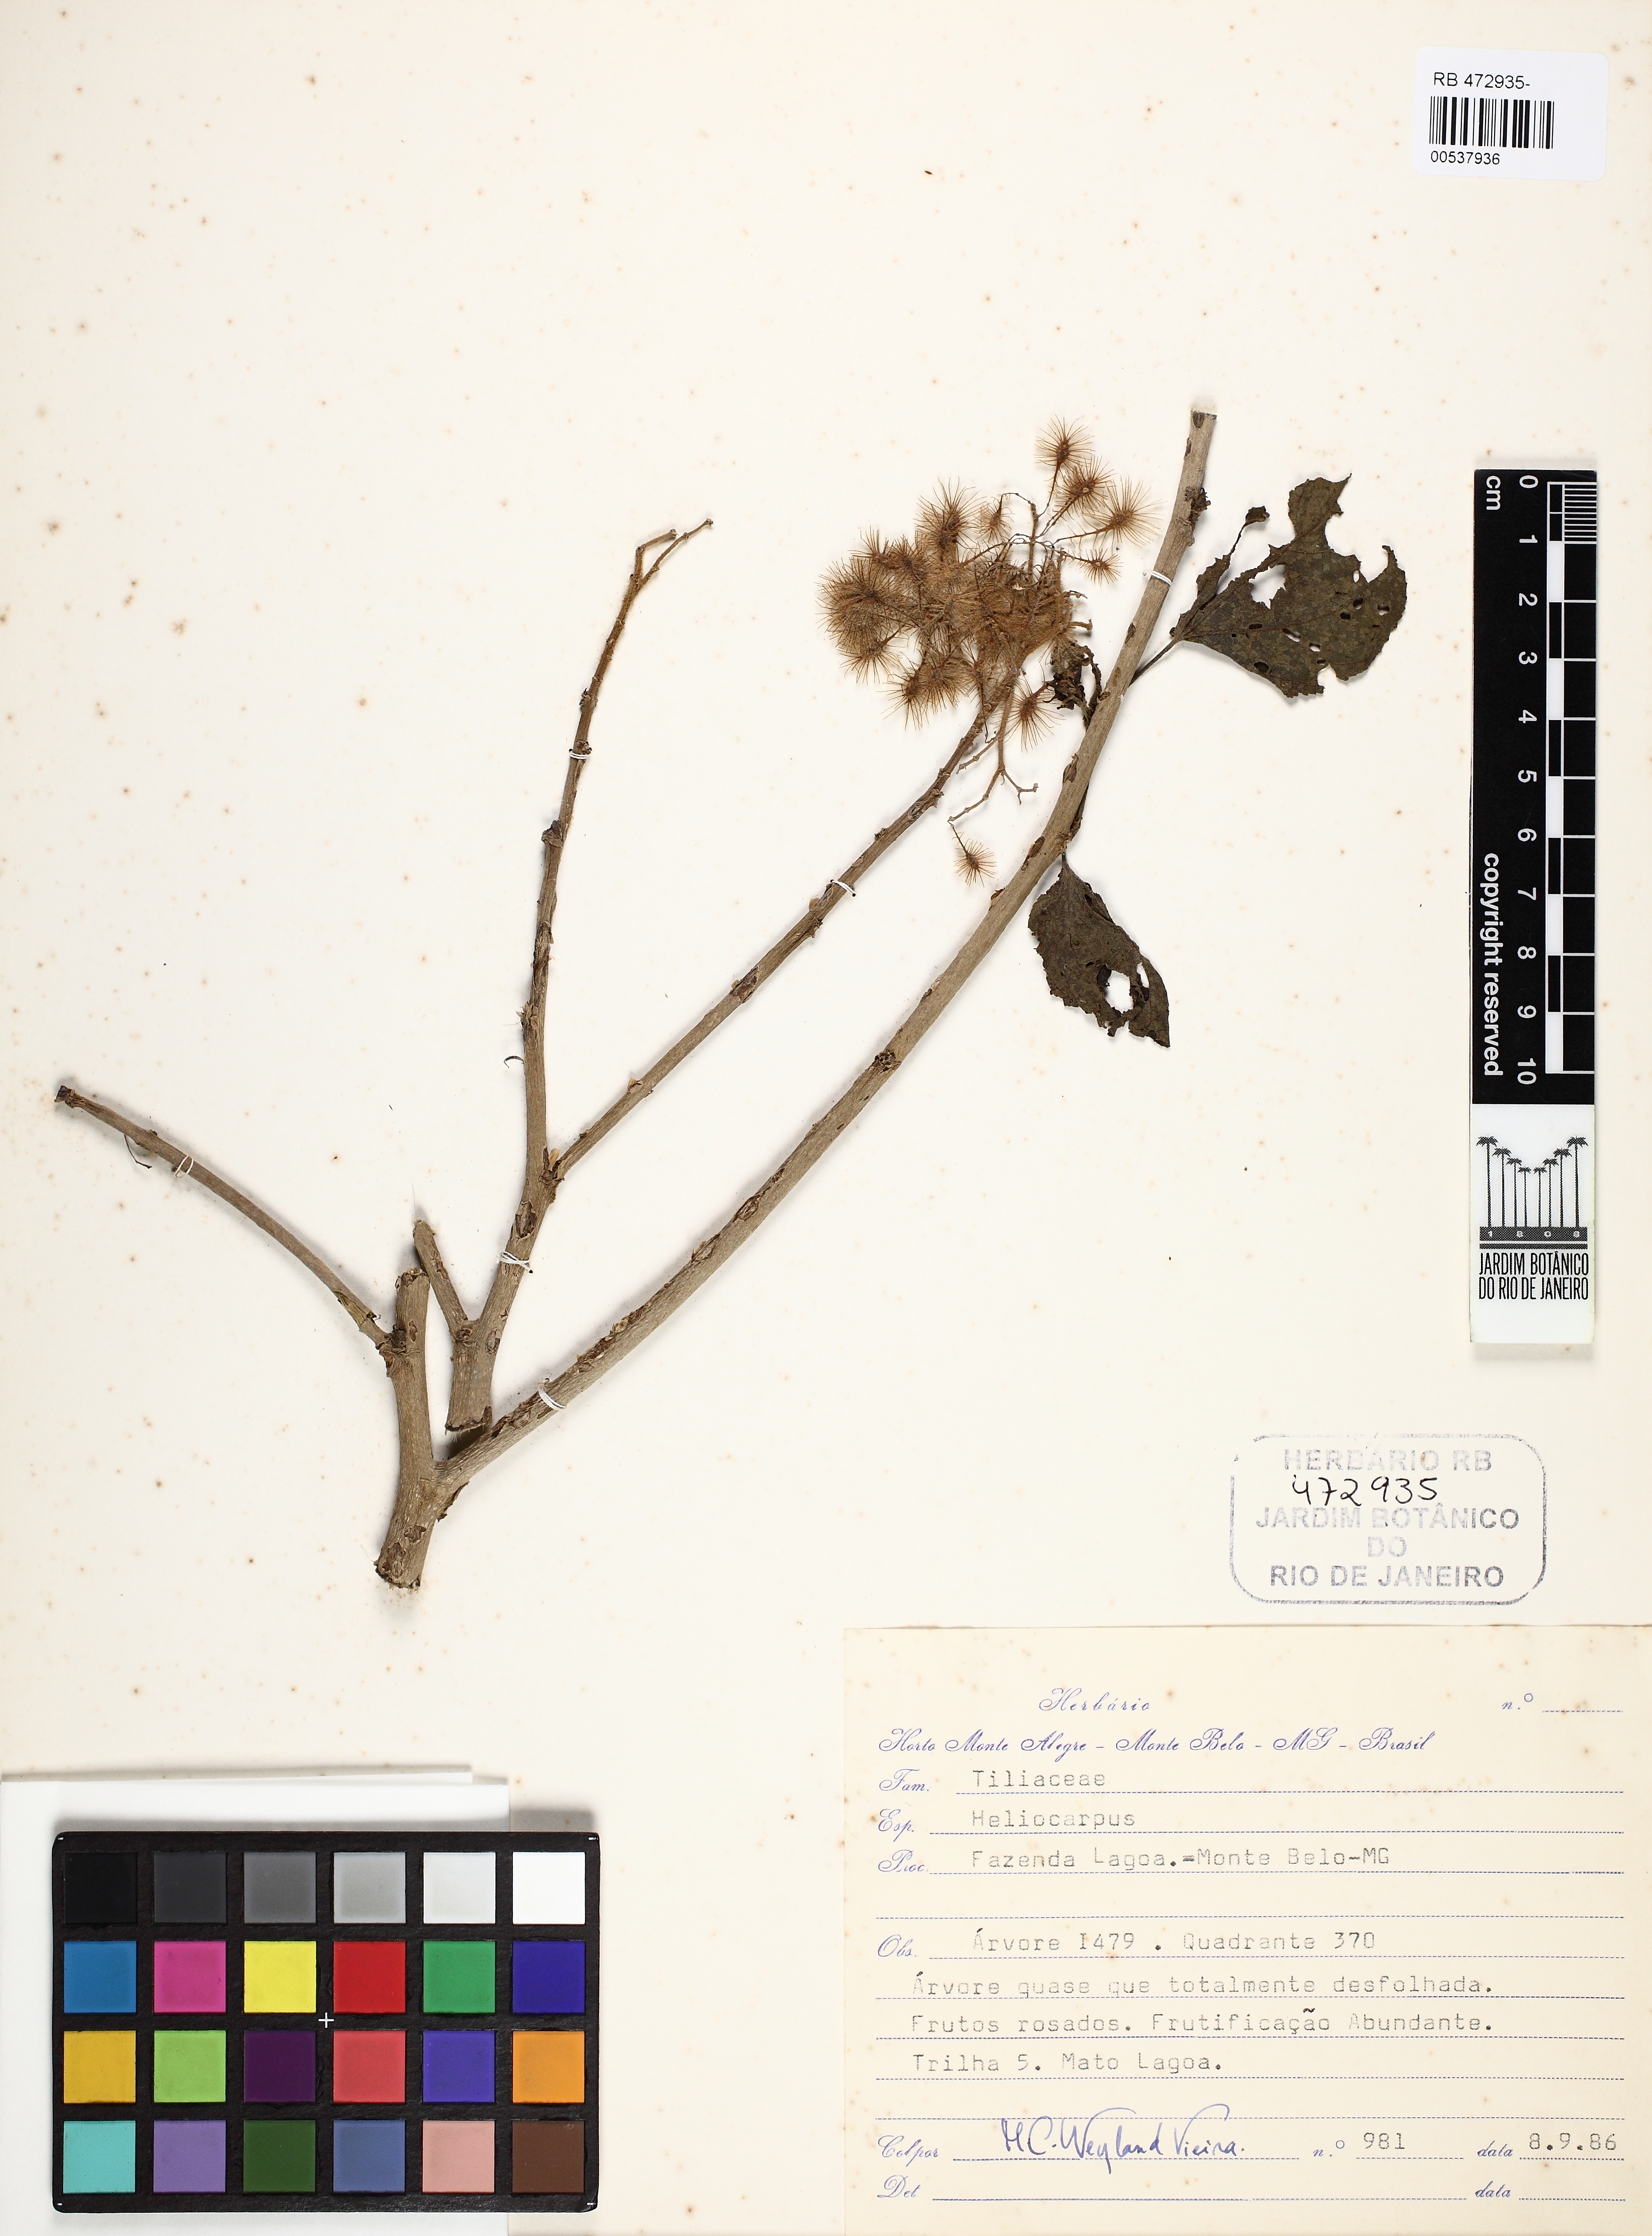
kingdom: Plantae
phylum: Tracheophyta
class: Magnoliopsida
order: Malvales
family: Malvaceae
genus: Heliocarpus
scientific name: Heliocarpus
